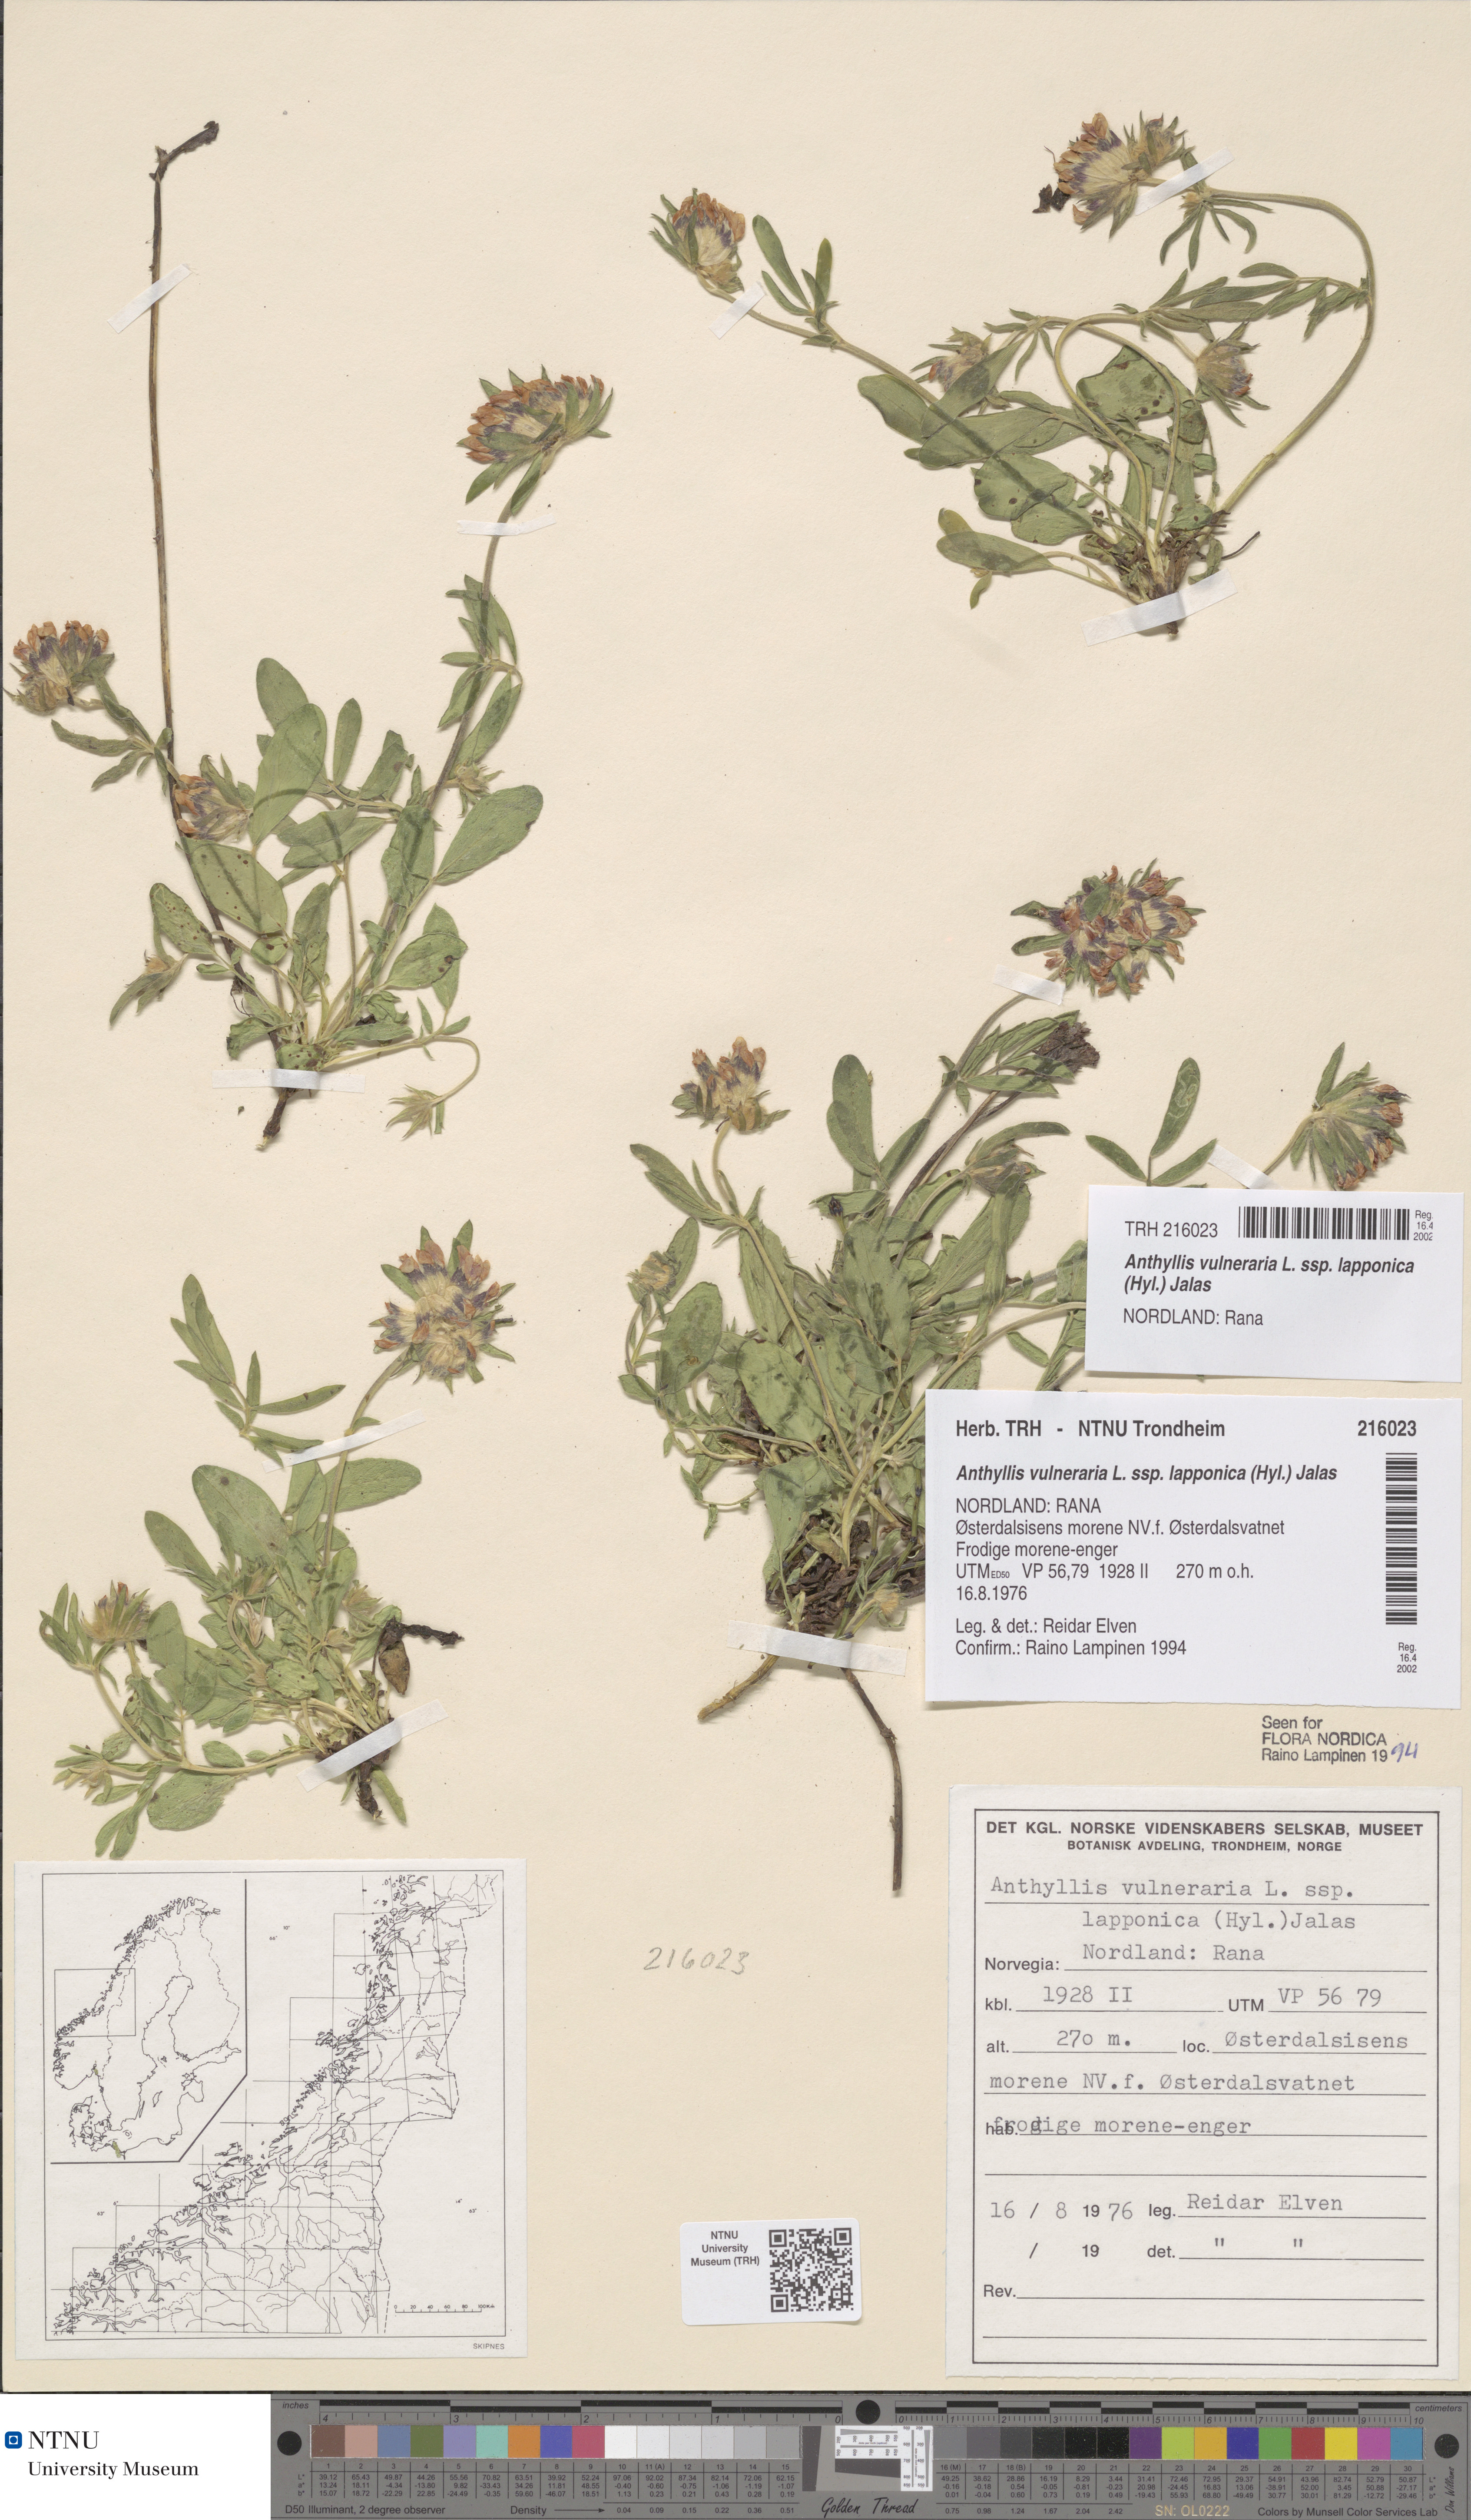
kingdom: Plantae
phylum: Tracheophyta
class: Magnoliopsida
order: Fabales
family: Fabaceae
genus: Anthyllis
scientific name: Anthyllis vulneraria
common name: Kidney vetch
